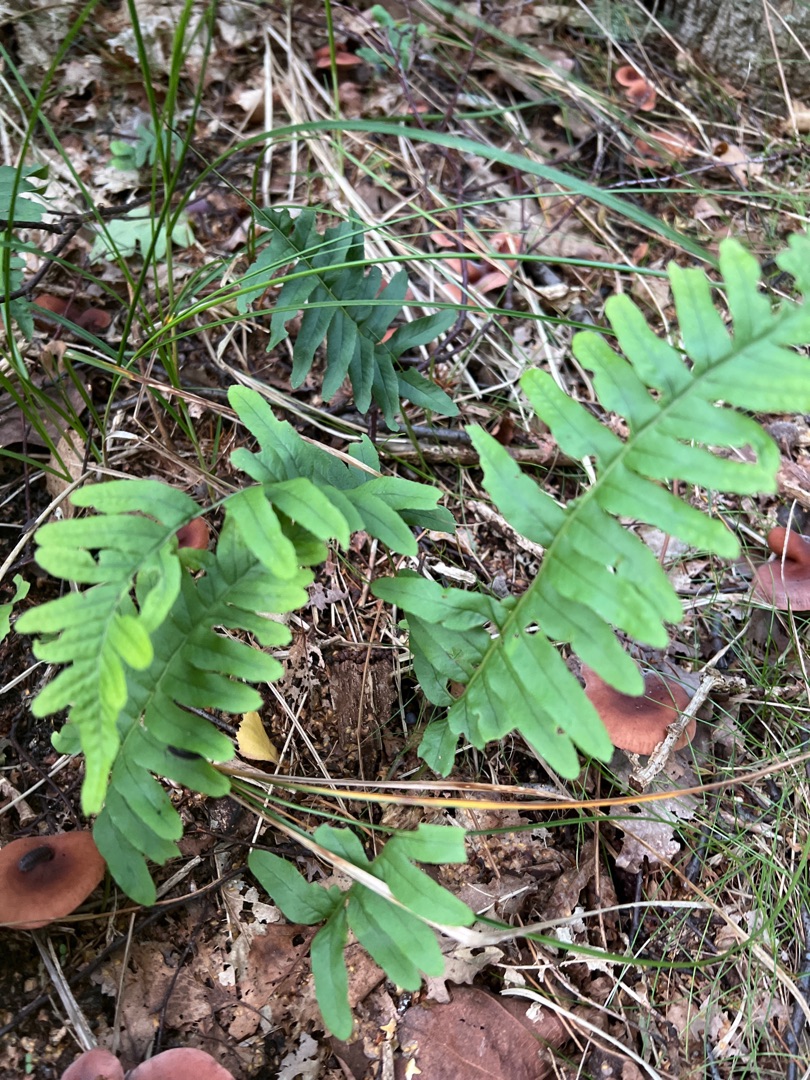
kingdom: Plantae
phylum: Tracheophyta
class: Polypodiopsida
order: Polypodiales
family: Polypodiaceae
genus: Polypodium
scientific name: Polypodium vulgare
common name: Almindelig engelsød
